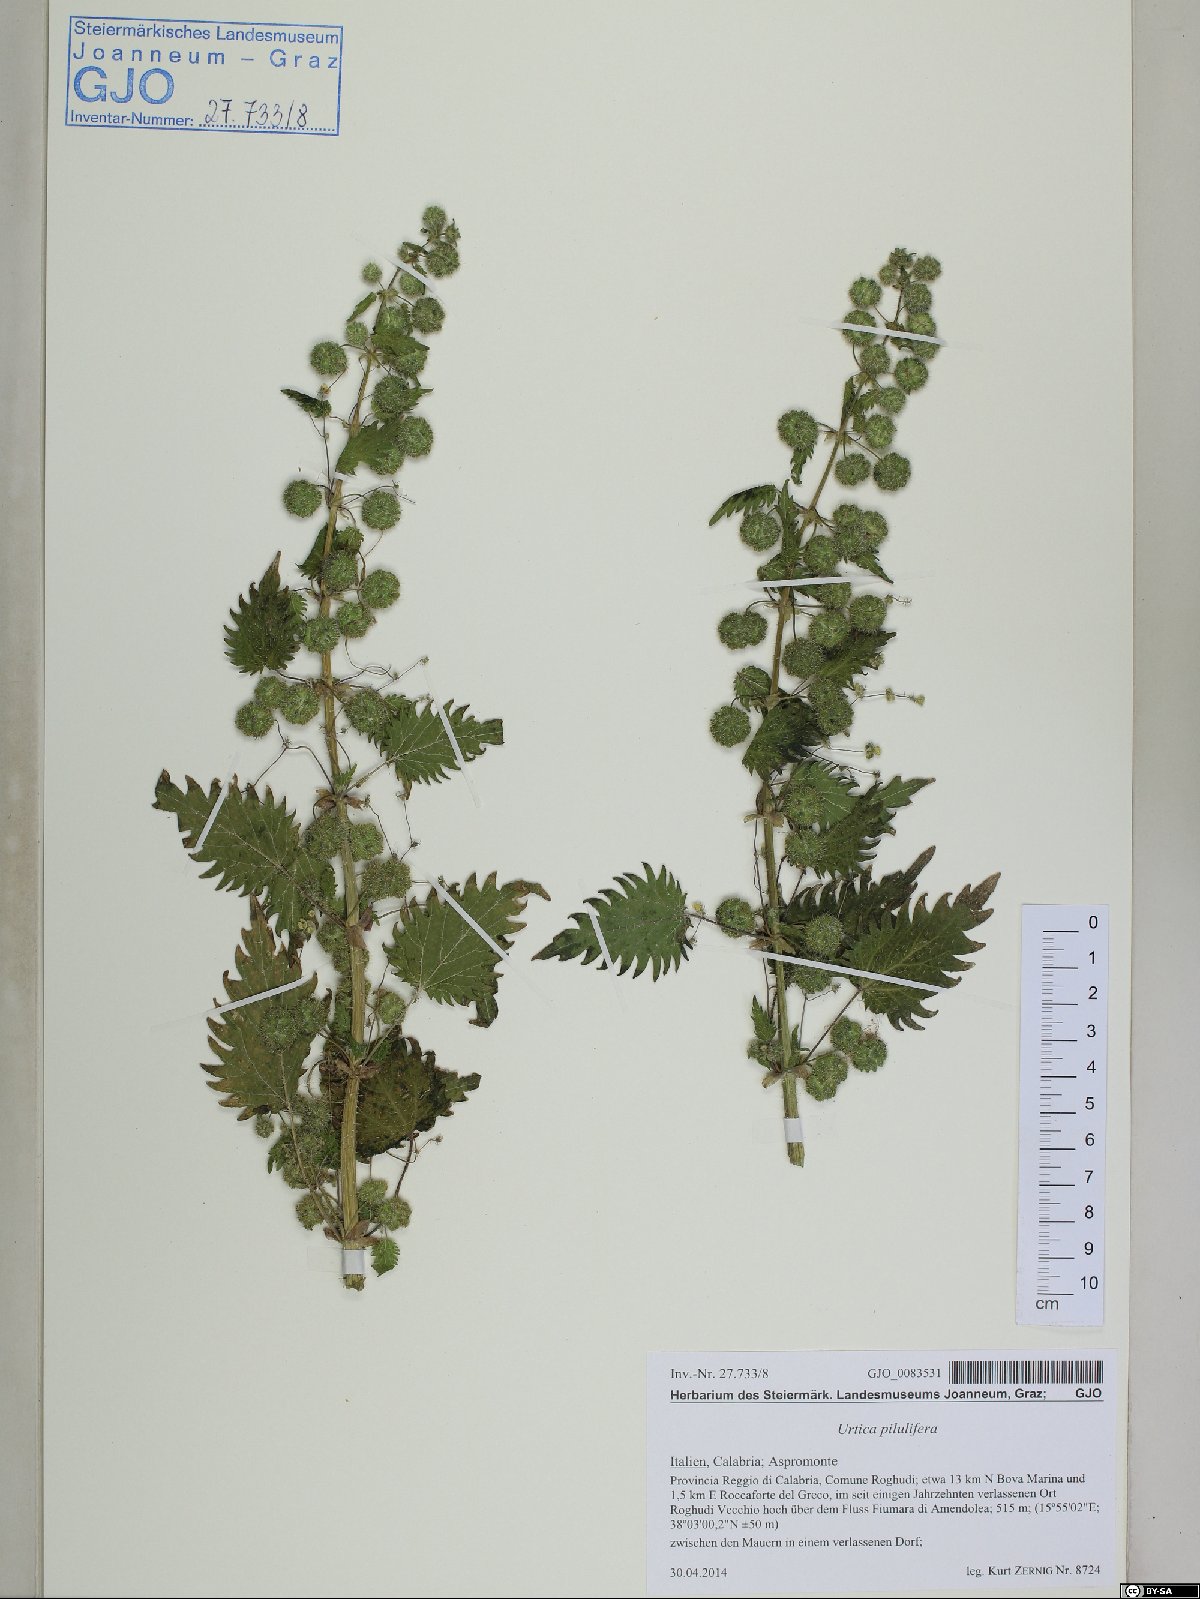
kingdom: Plantae
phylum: Tracheophyta
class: Magnoliopsida
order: Rosales
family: Urticaceae
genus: Urtica
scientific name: Urtica pilulifera
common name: Roman nettle
